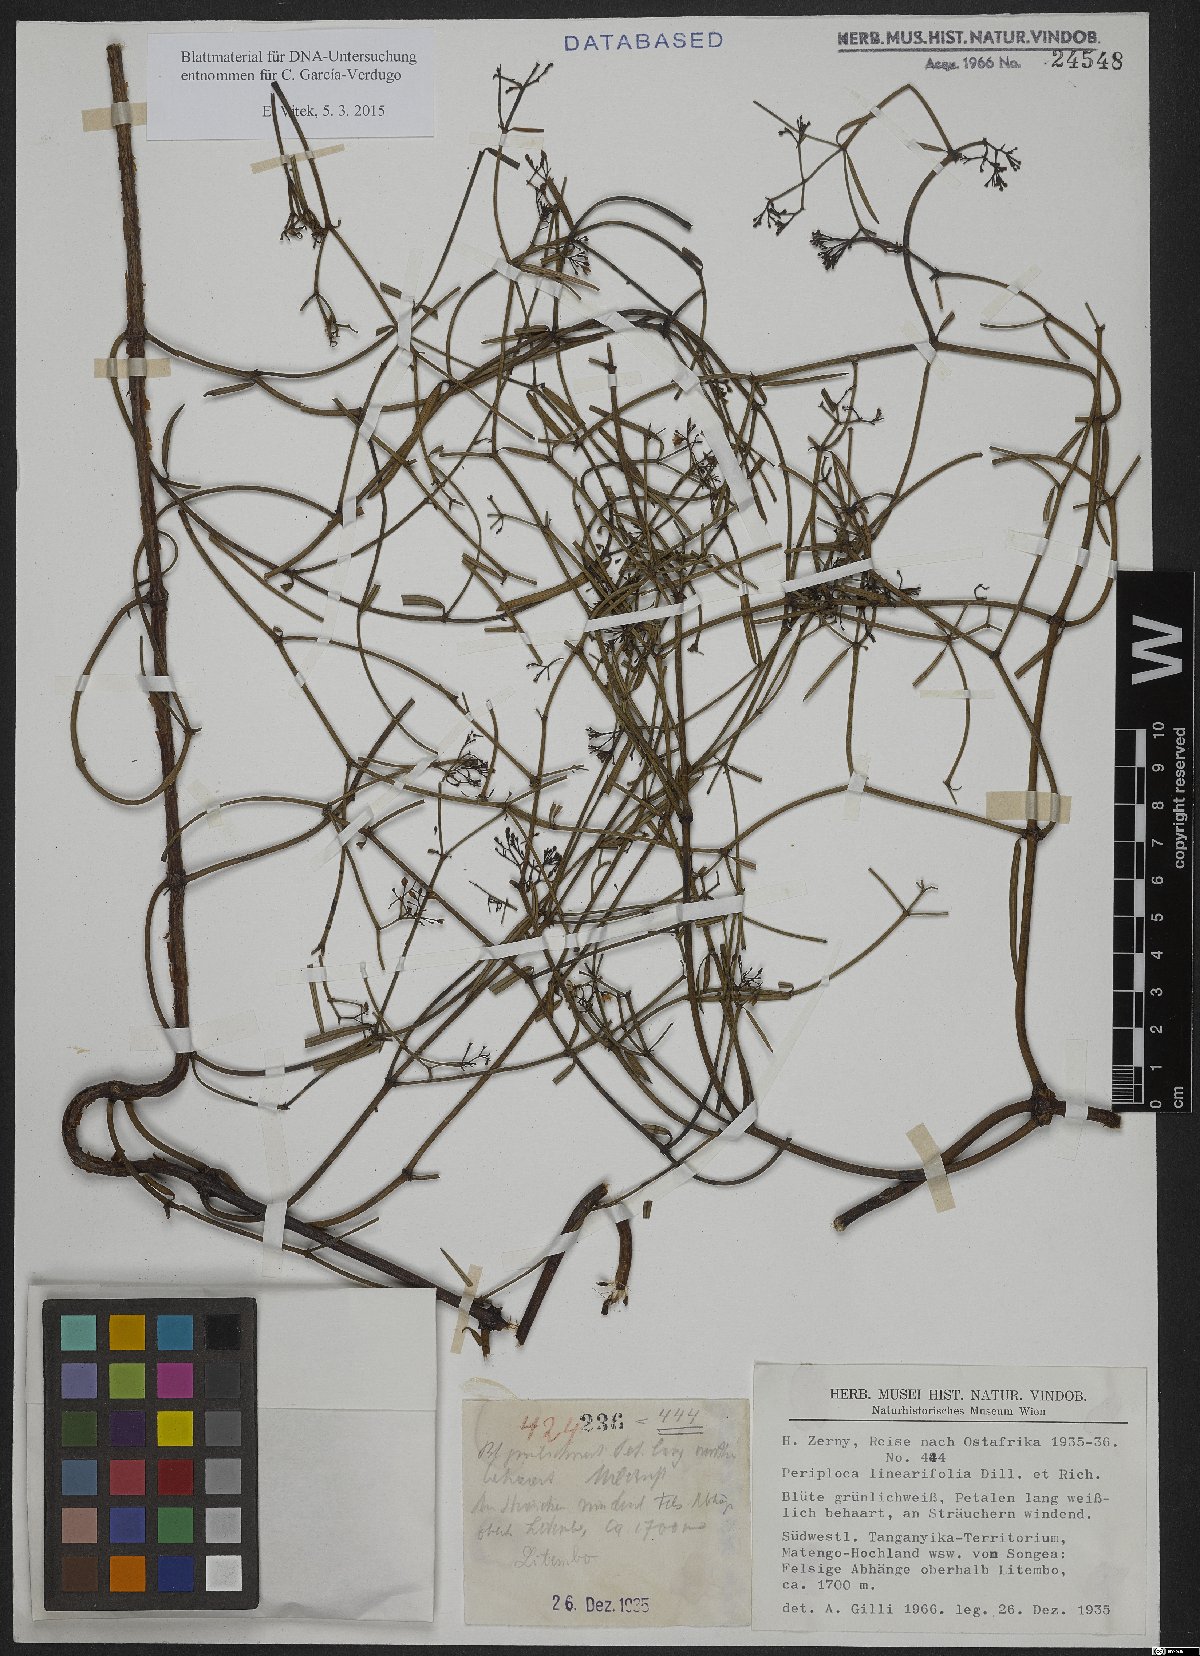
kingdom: Plantae
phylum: Tracheophyta
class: Magnoliopsida
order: Gentianales
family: Apocynaceae
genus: Periploca
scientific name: Periploca linearifolia
